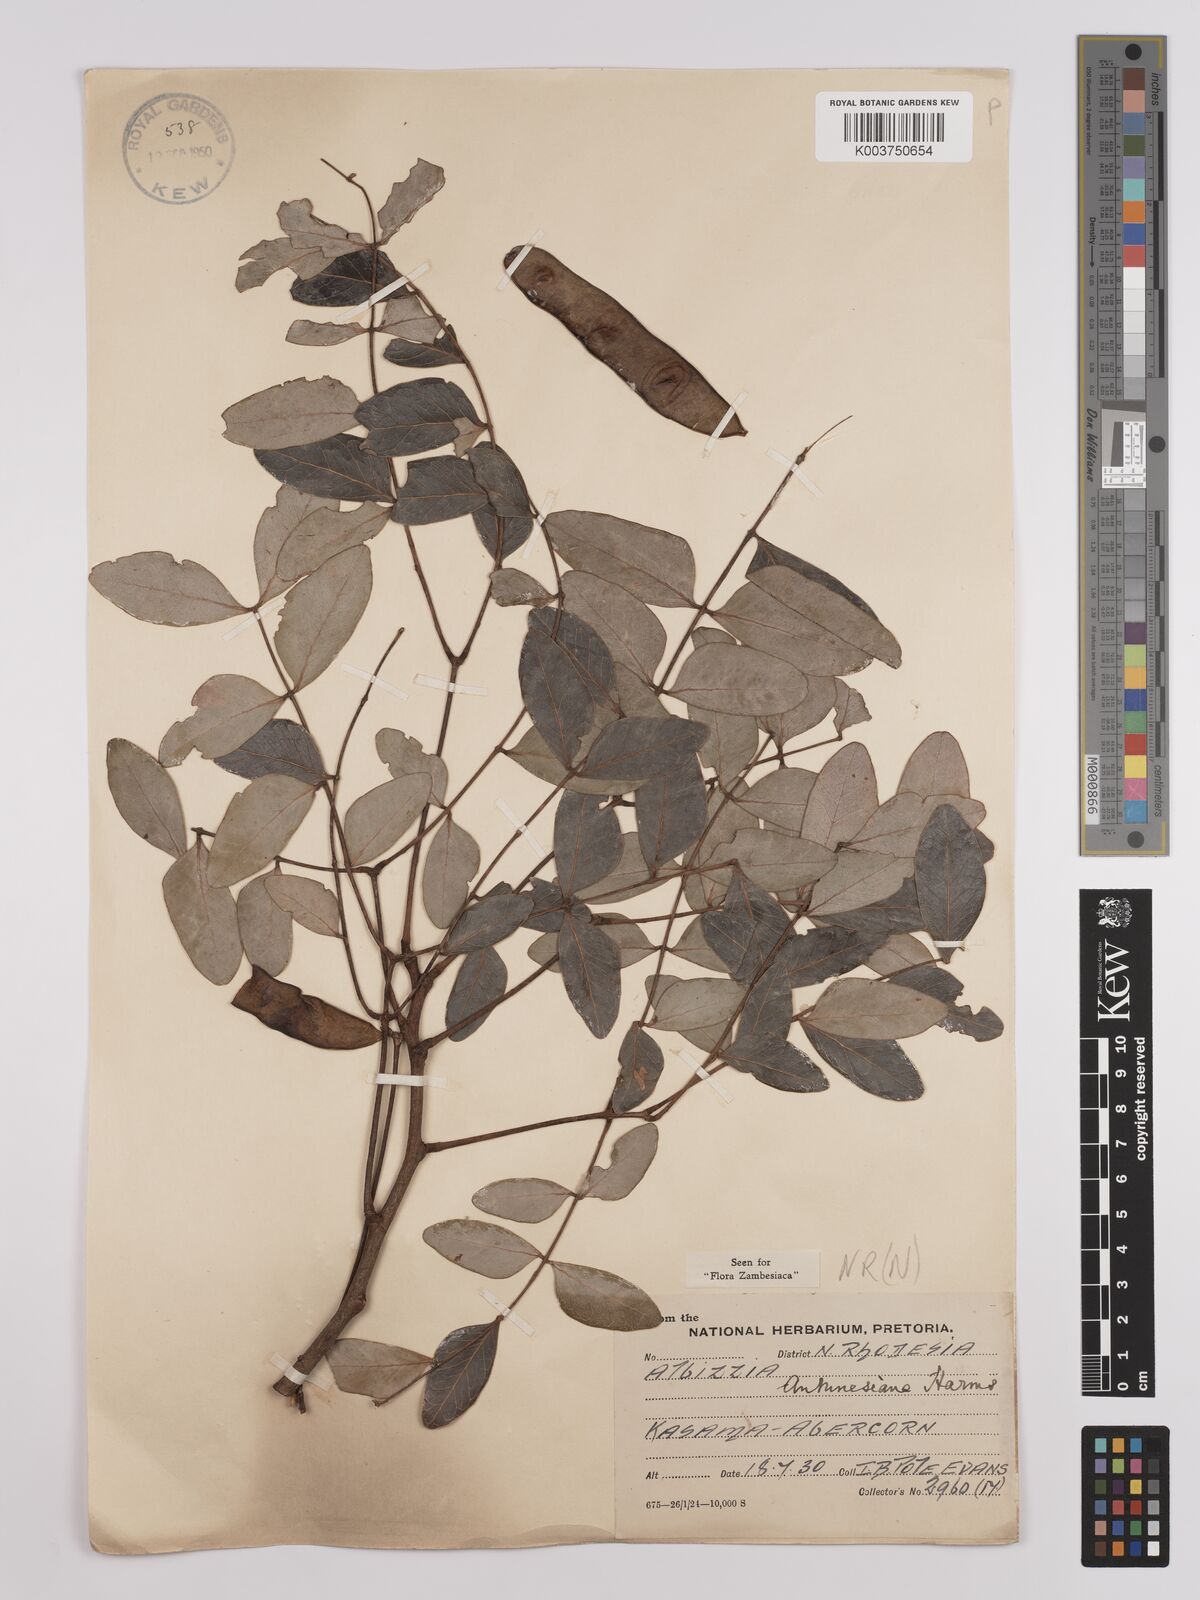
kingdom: Plantae
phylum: Tracheophyta
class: Magnoliopsida
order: Fabales
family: Fabaceae
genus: Albizia
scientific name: Albizia antunesiana
